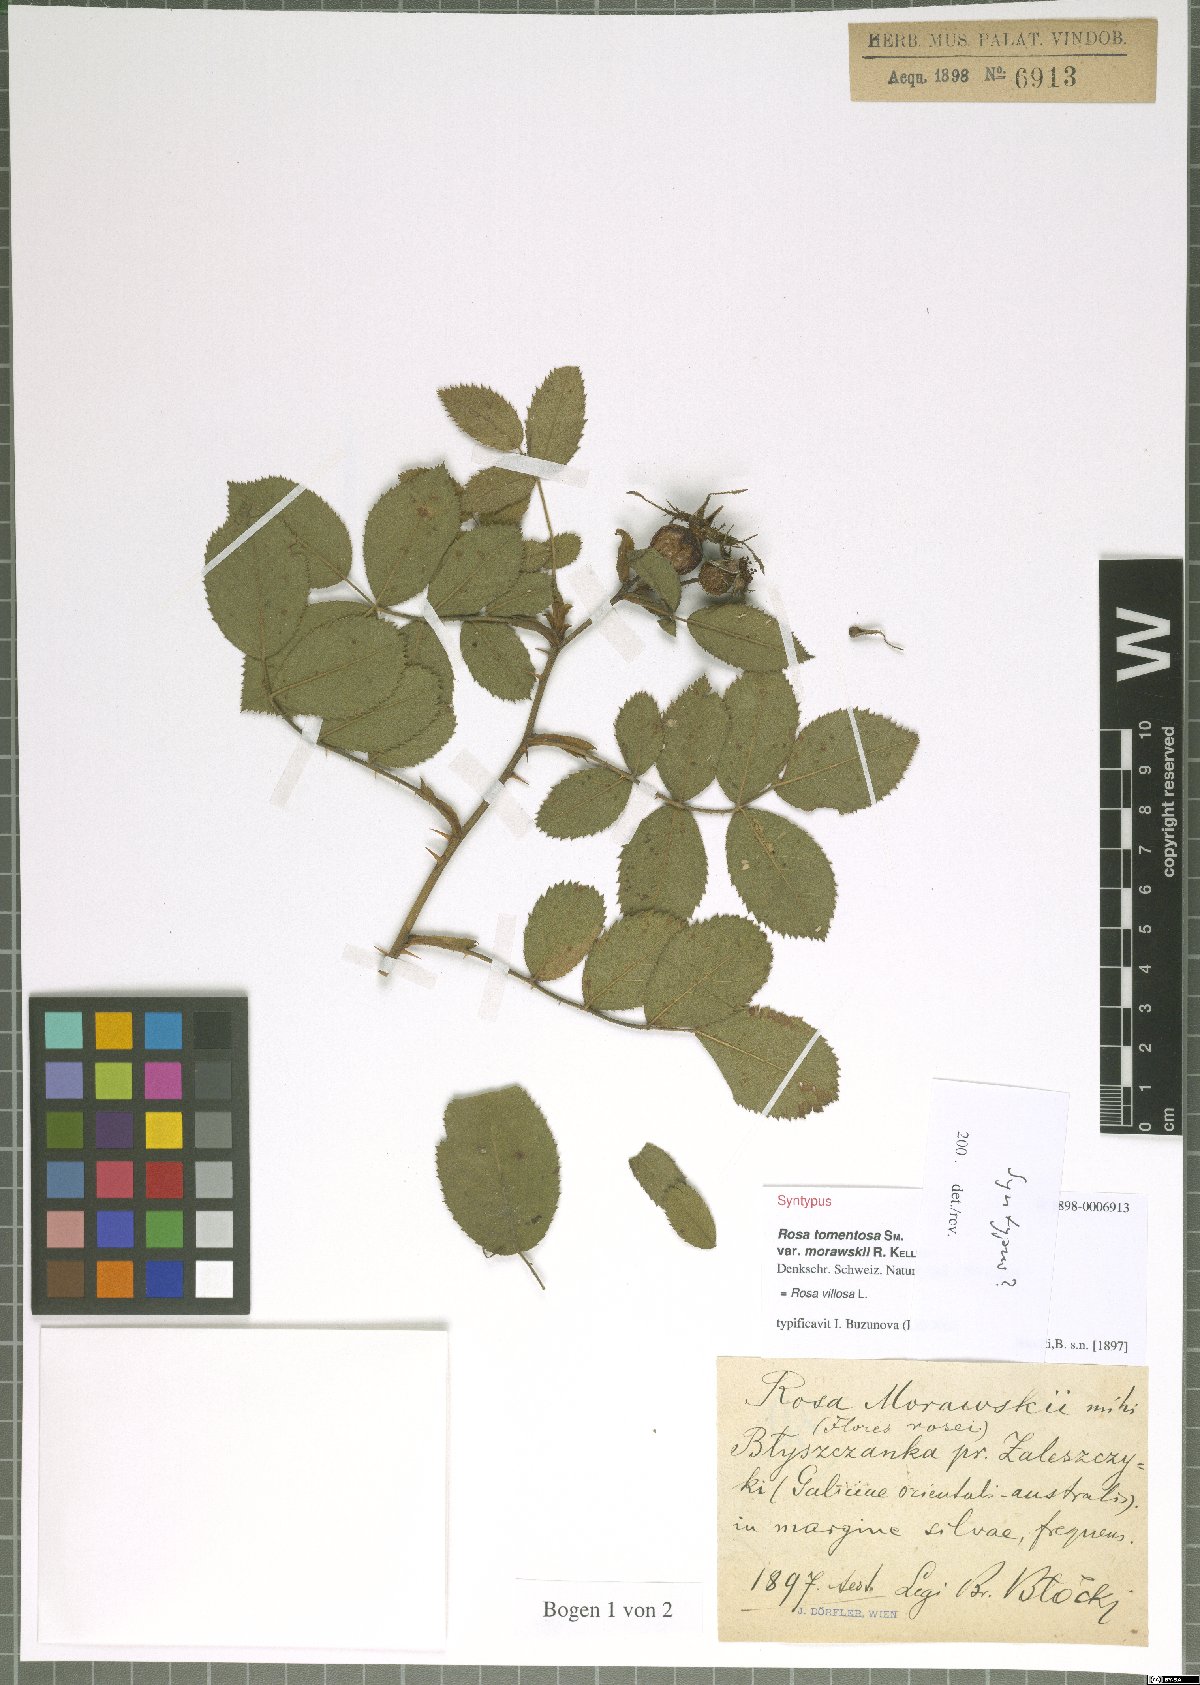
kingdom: Plantae
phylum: Tracheophyta
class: Magnoliopsida
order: Rosales
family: Rosaceae
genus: Rosa
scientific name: Rosa villosa
